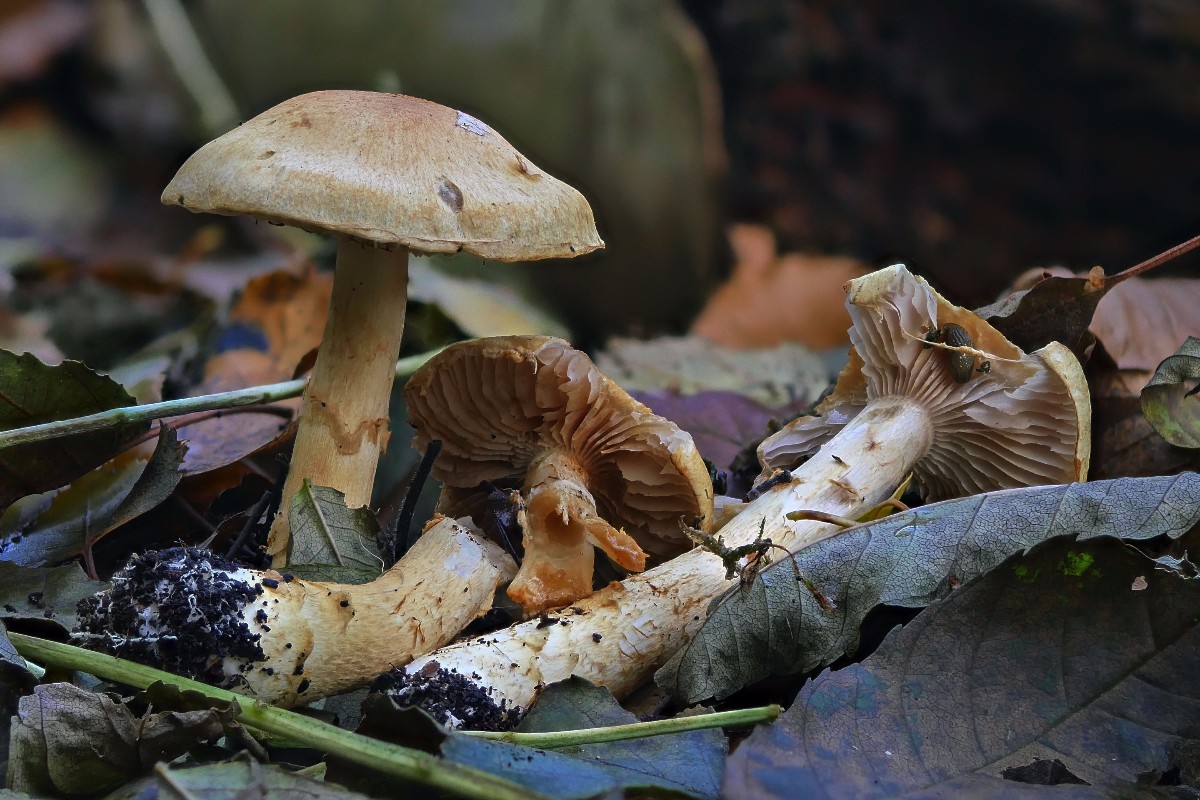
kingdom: Fungi
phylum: Basidiomycota
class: Agaricomycetes
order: Agaricales
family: Cortinariaceae
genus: Phlegmacium
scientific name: Phlegmacium triumphans
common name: gulbæltet slørhat
